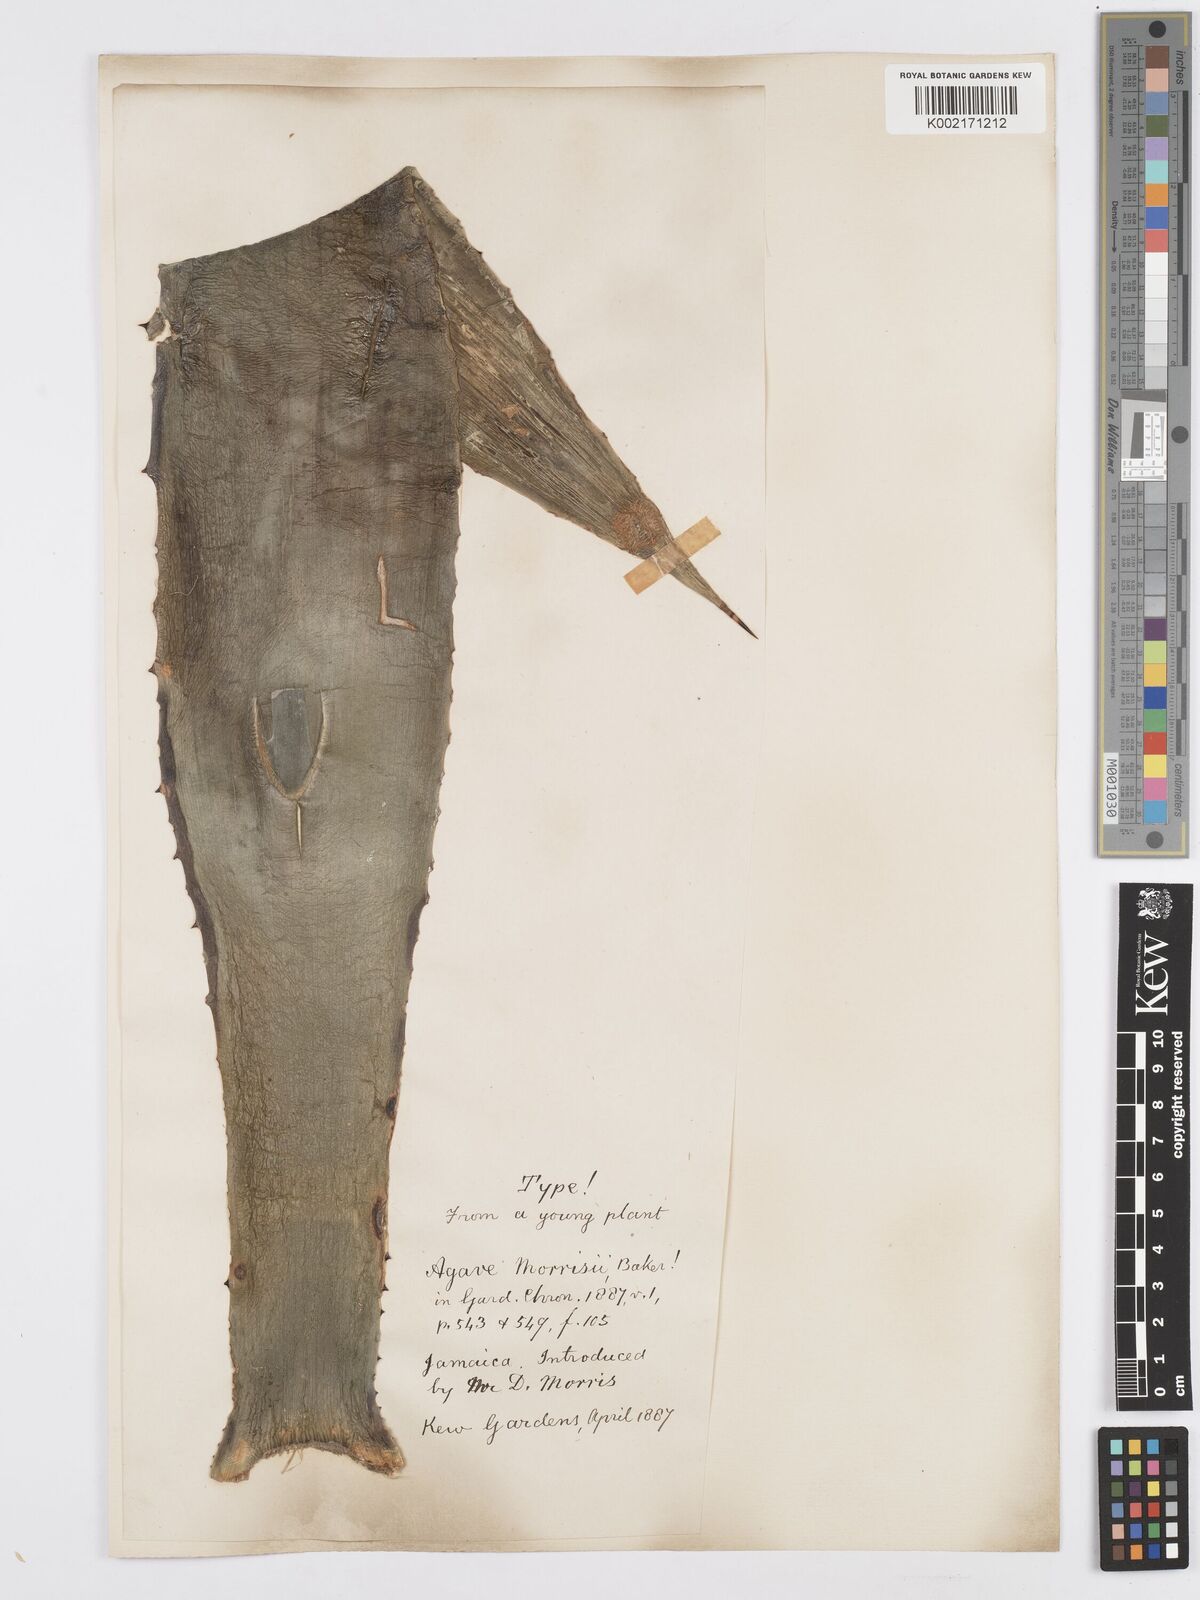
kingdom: Plantae
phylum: Tracheophyta
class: Liliopsida
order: Asparagales
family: Asparagaceae
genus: Agave
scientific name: Agave sobolifera
